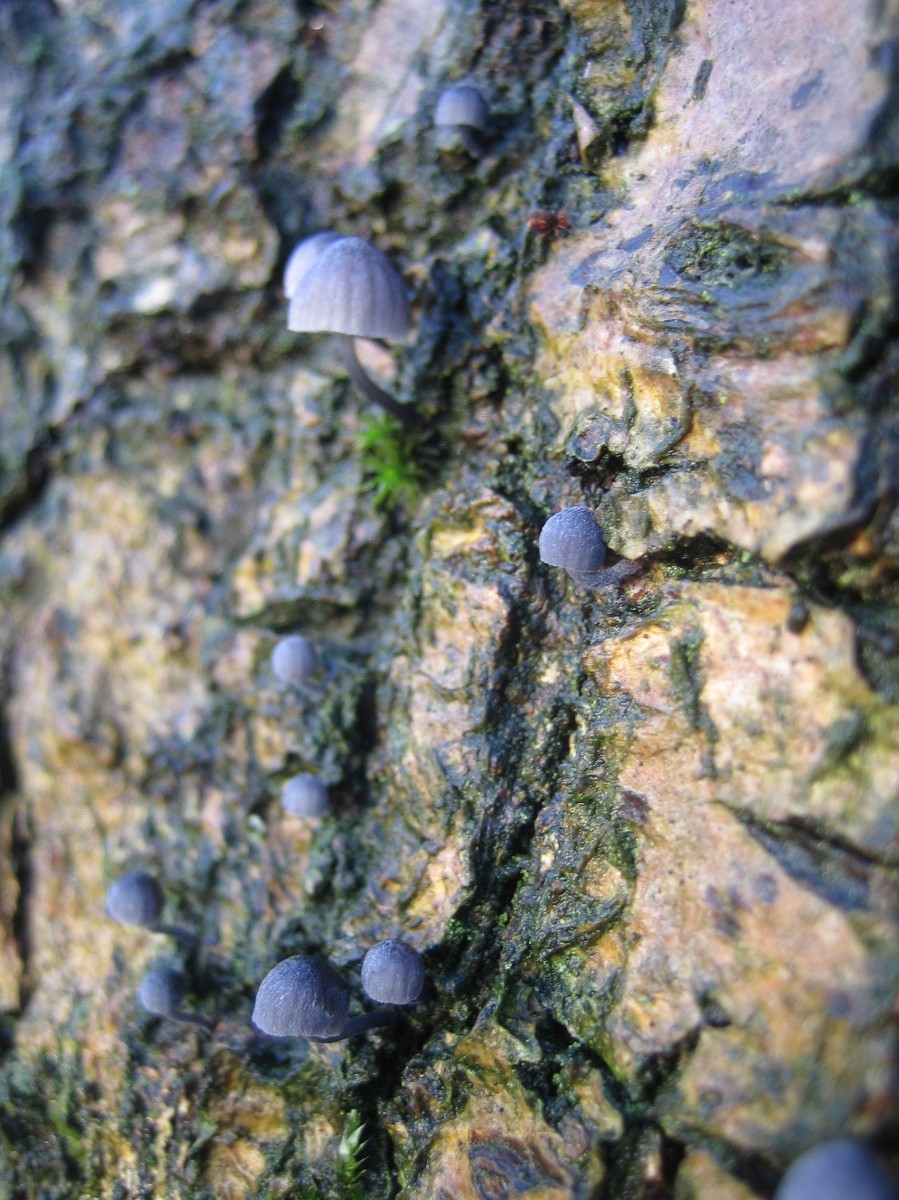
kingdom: Fungi
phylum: Basidiomycota
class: Agaricomycetes
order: Agaricales
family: Mycenaceae
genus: Mycena
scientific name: Mycena pseudocorticola
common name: gråblå bark-huesvamp
